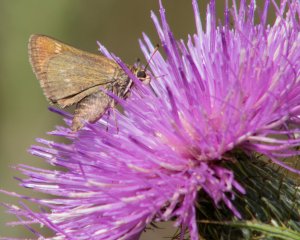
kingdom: Animalia
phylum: Arthropoda
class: Insecta
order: Lepidoptera
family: Hesperiidae
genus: Polites
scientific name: Polites
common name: Crossline Skipper
